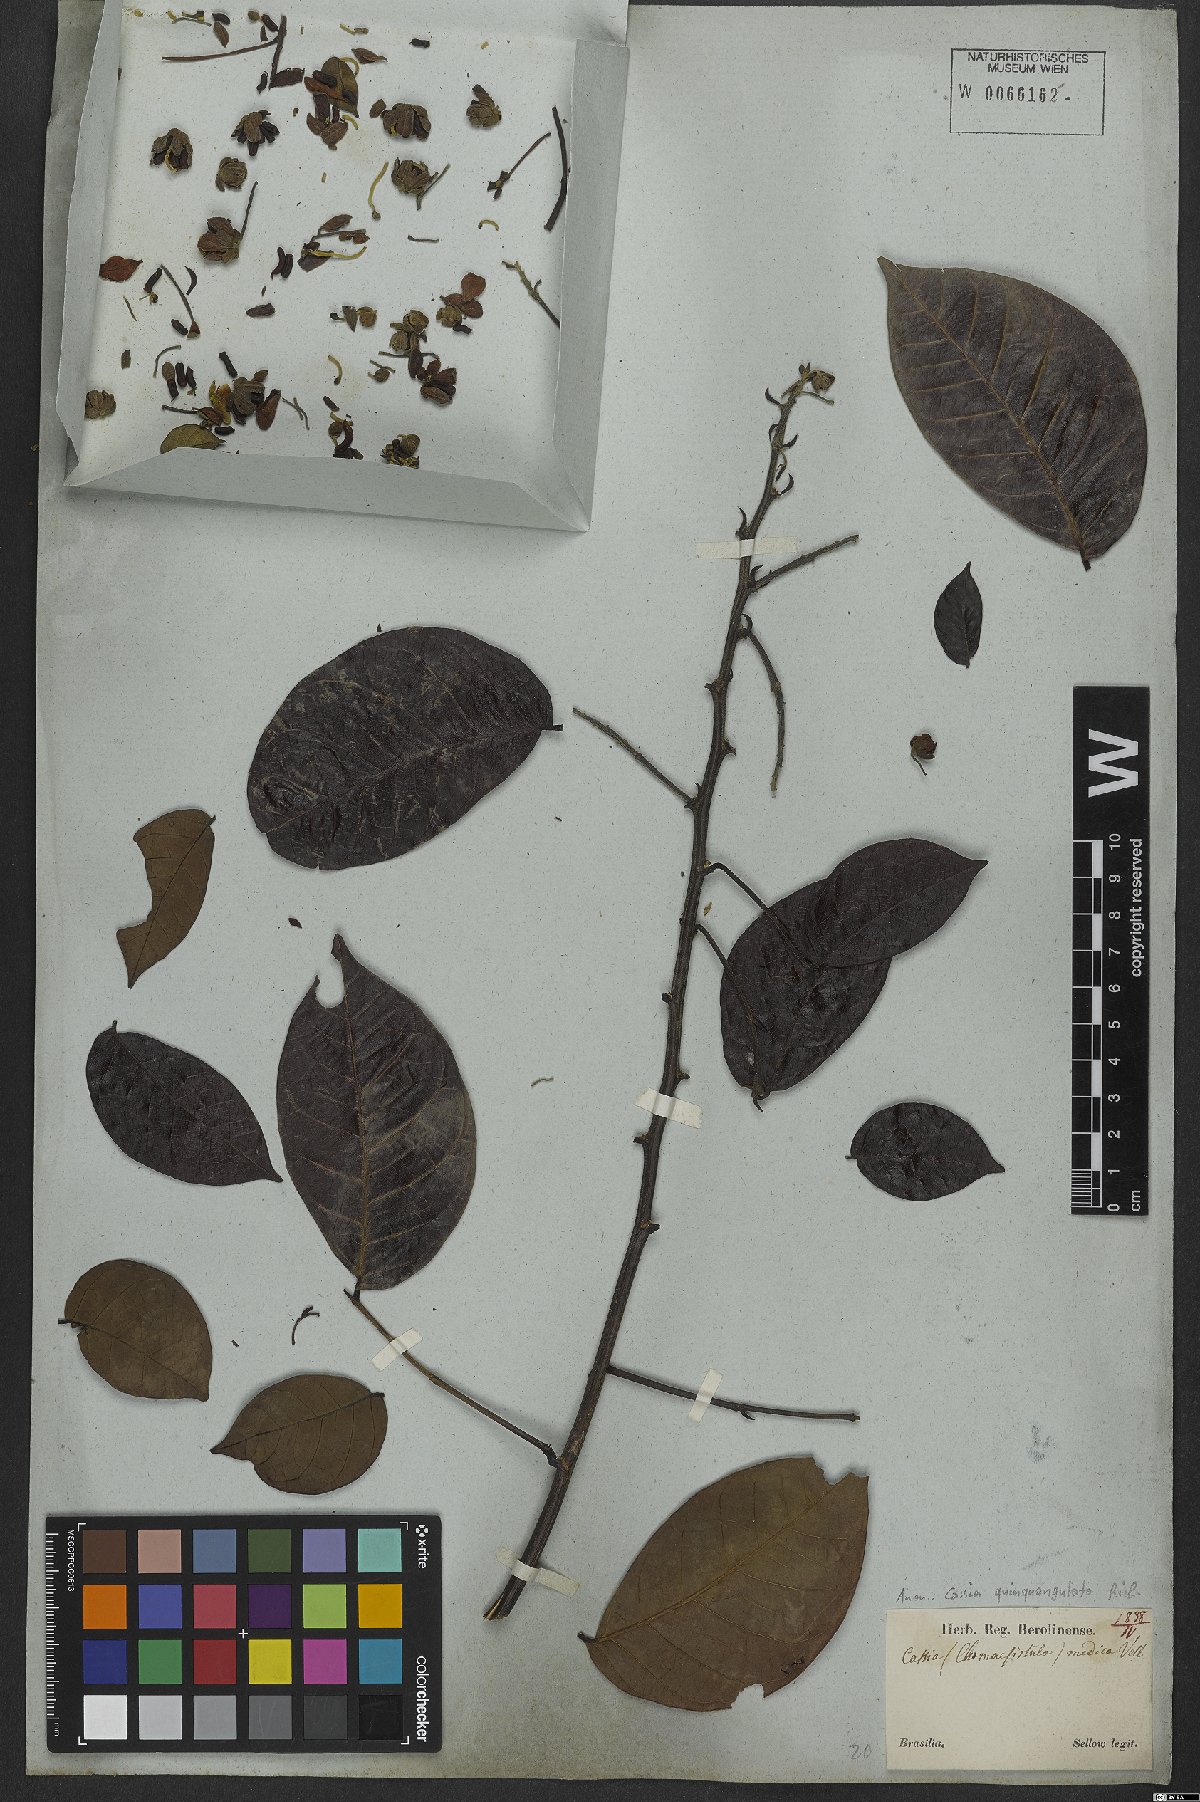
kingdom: Plantae
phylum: Tracheophyta
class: Magnoliopsida
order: Fabales
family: Fabaceae
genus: Senna
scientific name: Senna quinquangulata
